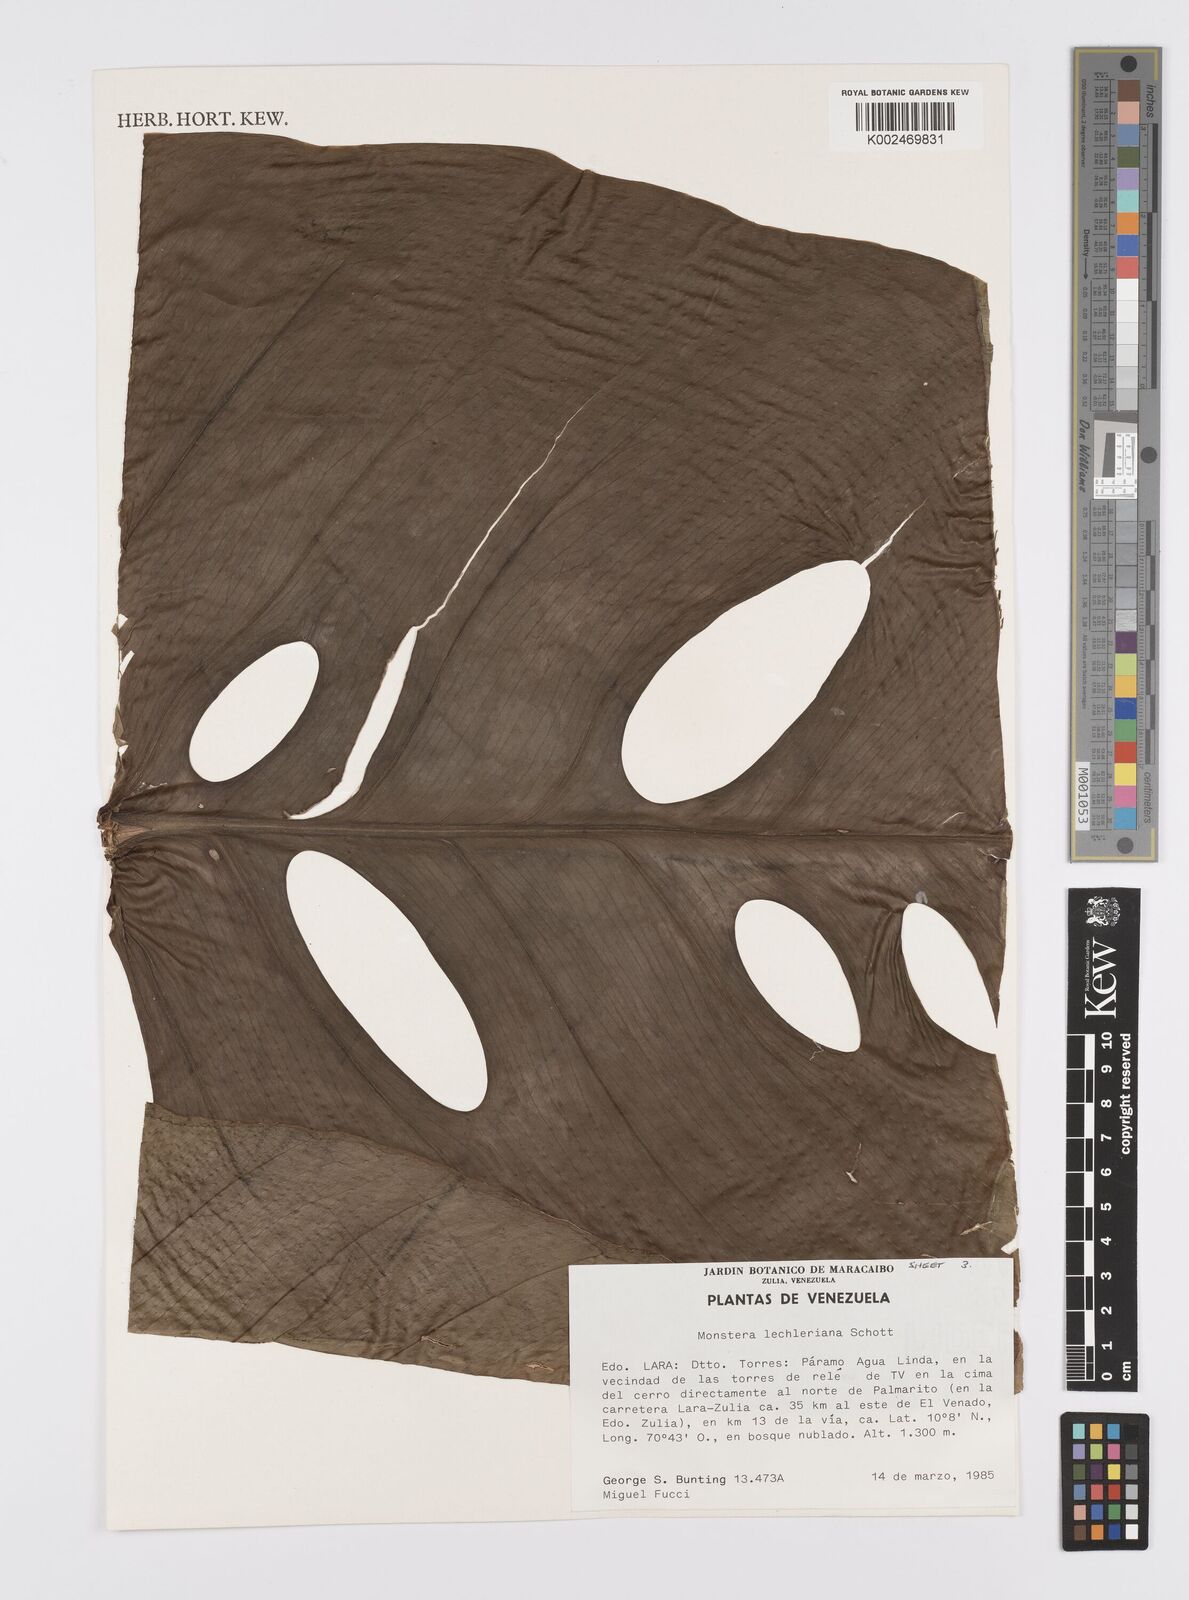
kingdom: Plantae
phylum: Tracheophyta
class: Liliopsida
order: Alismatales
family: Araceae
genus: Monstera
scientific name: Monstera lechleriana
